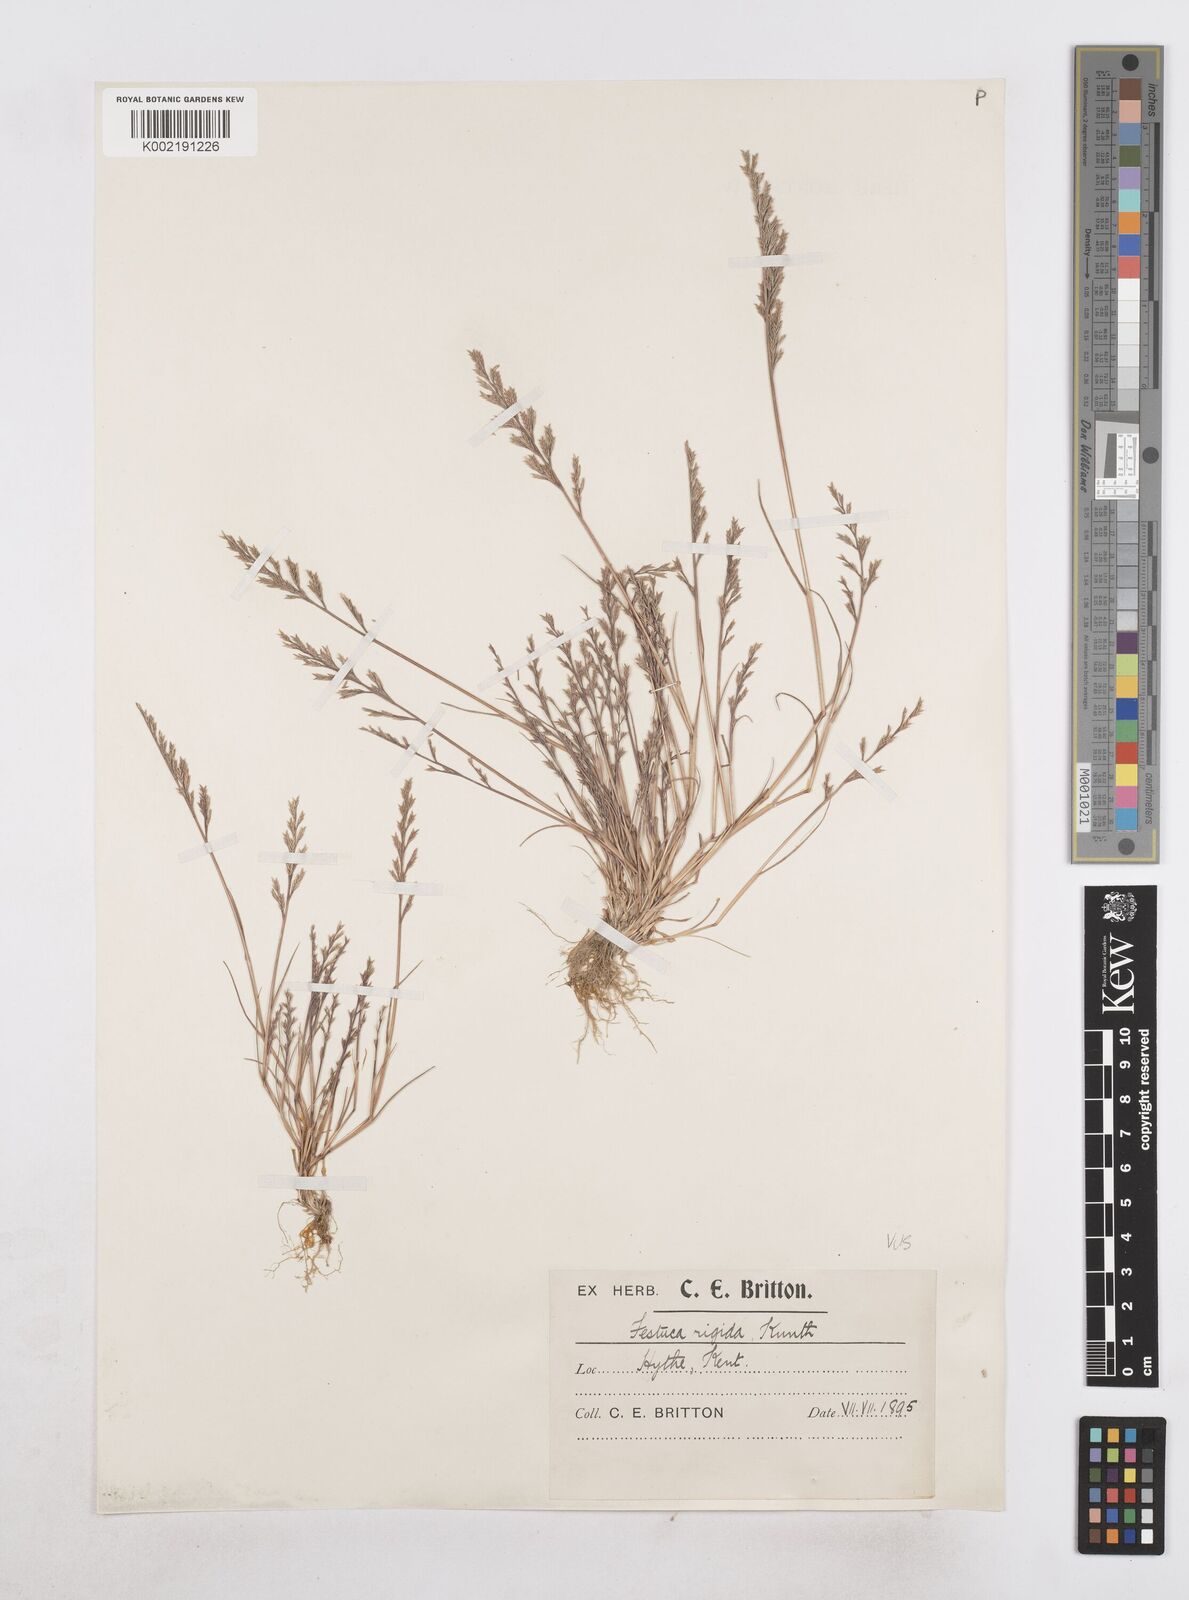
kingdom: Plantae
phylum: Tracheophyta
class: Liliopsida
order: Poales
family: Poaceae
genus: Catapodium
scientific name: Catapodium rigidum
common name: Fern-grass
